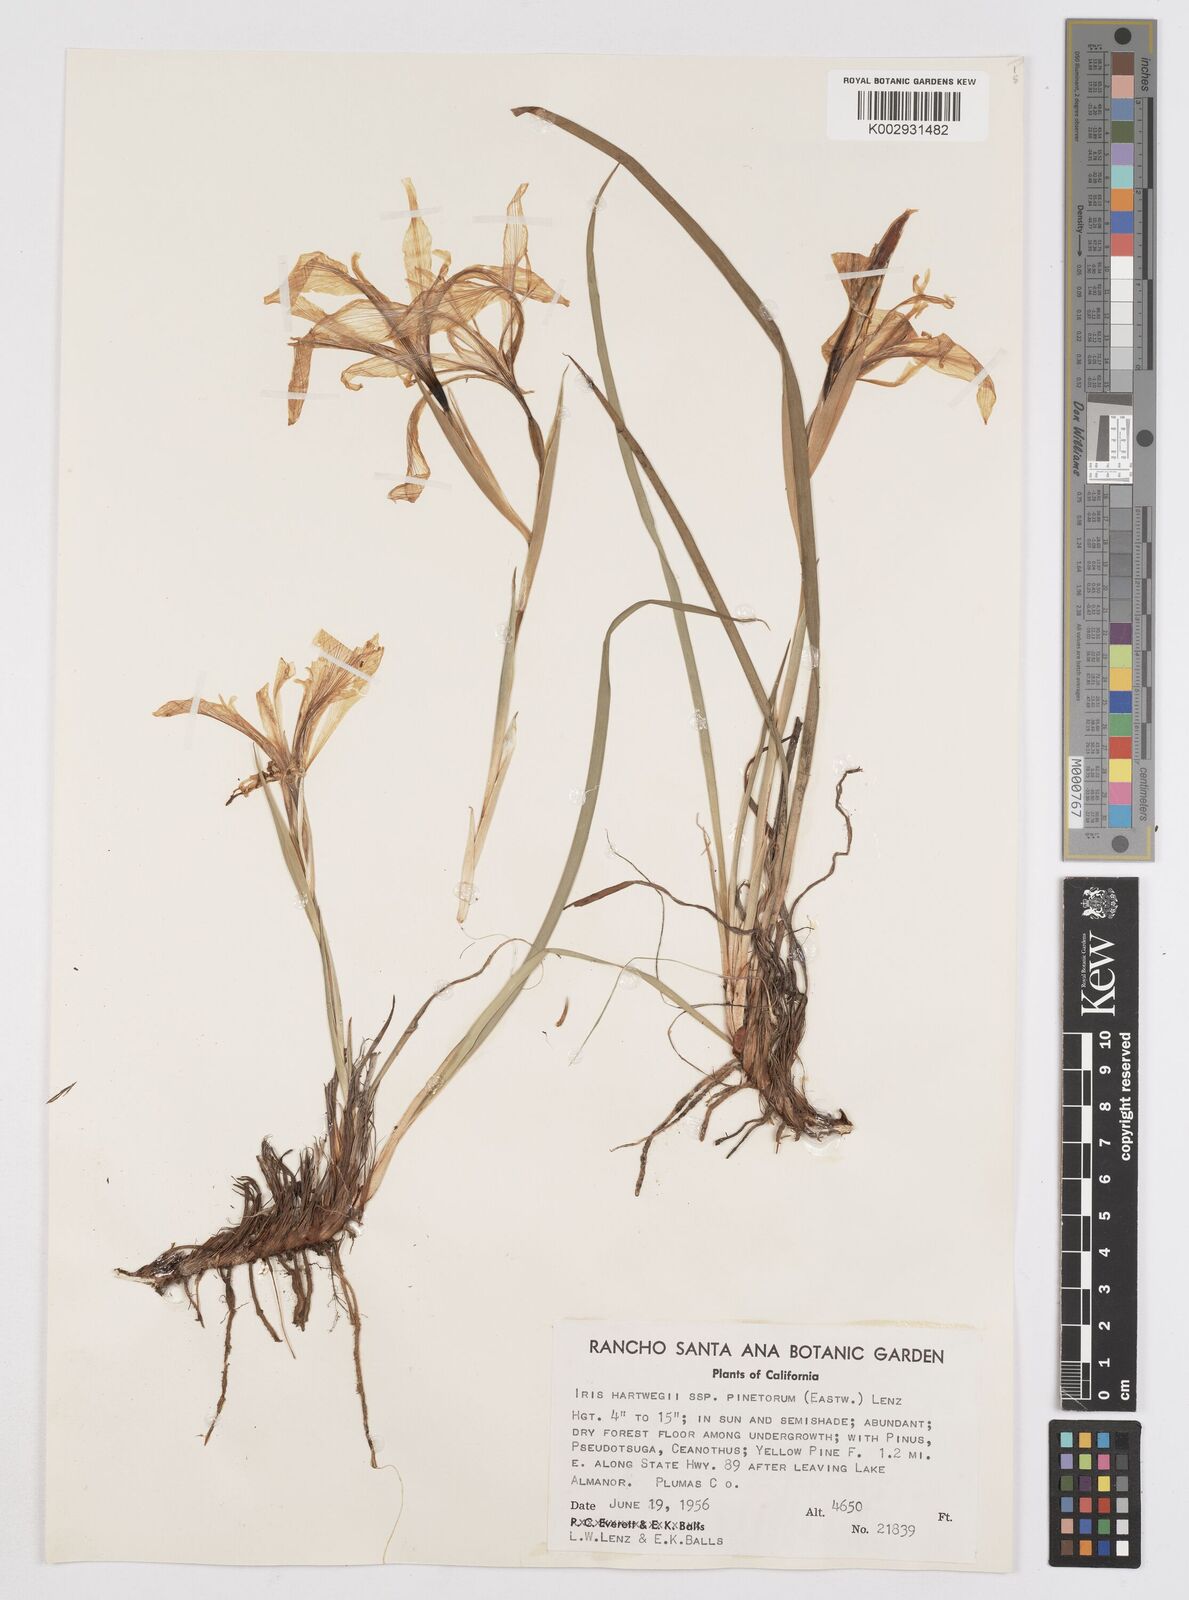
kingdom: Plantae
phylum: Tracheophyta
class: Liliopsida
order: Asparagales
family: Iridaceae
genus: Iris
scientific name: Iris hartwegii
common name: Sierra iris
